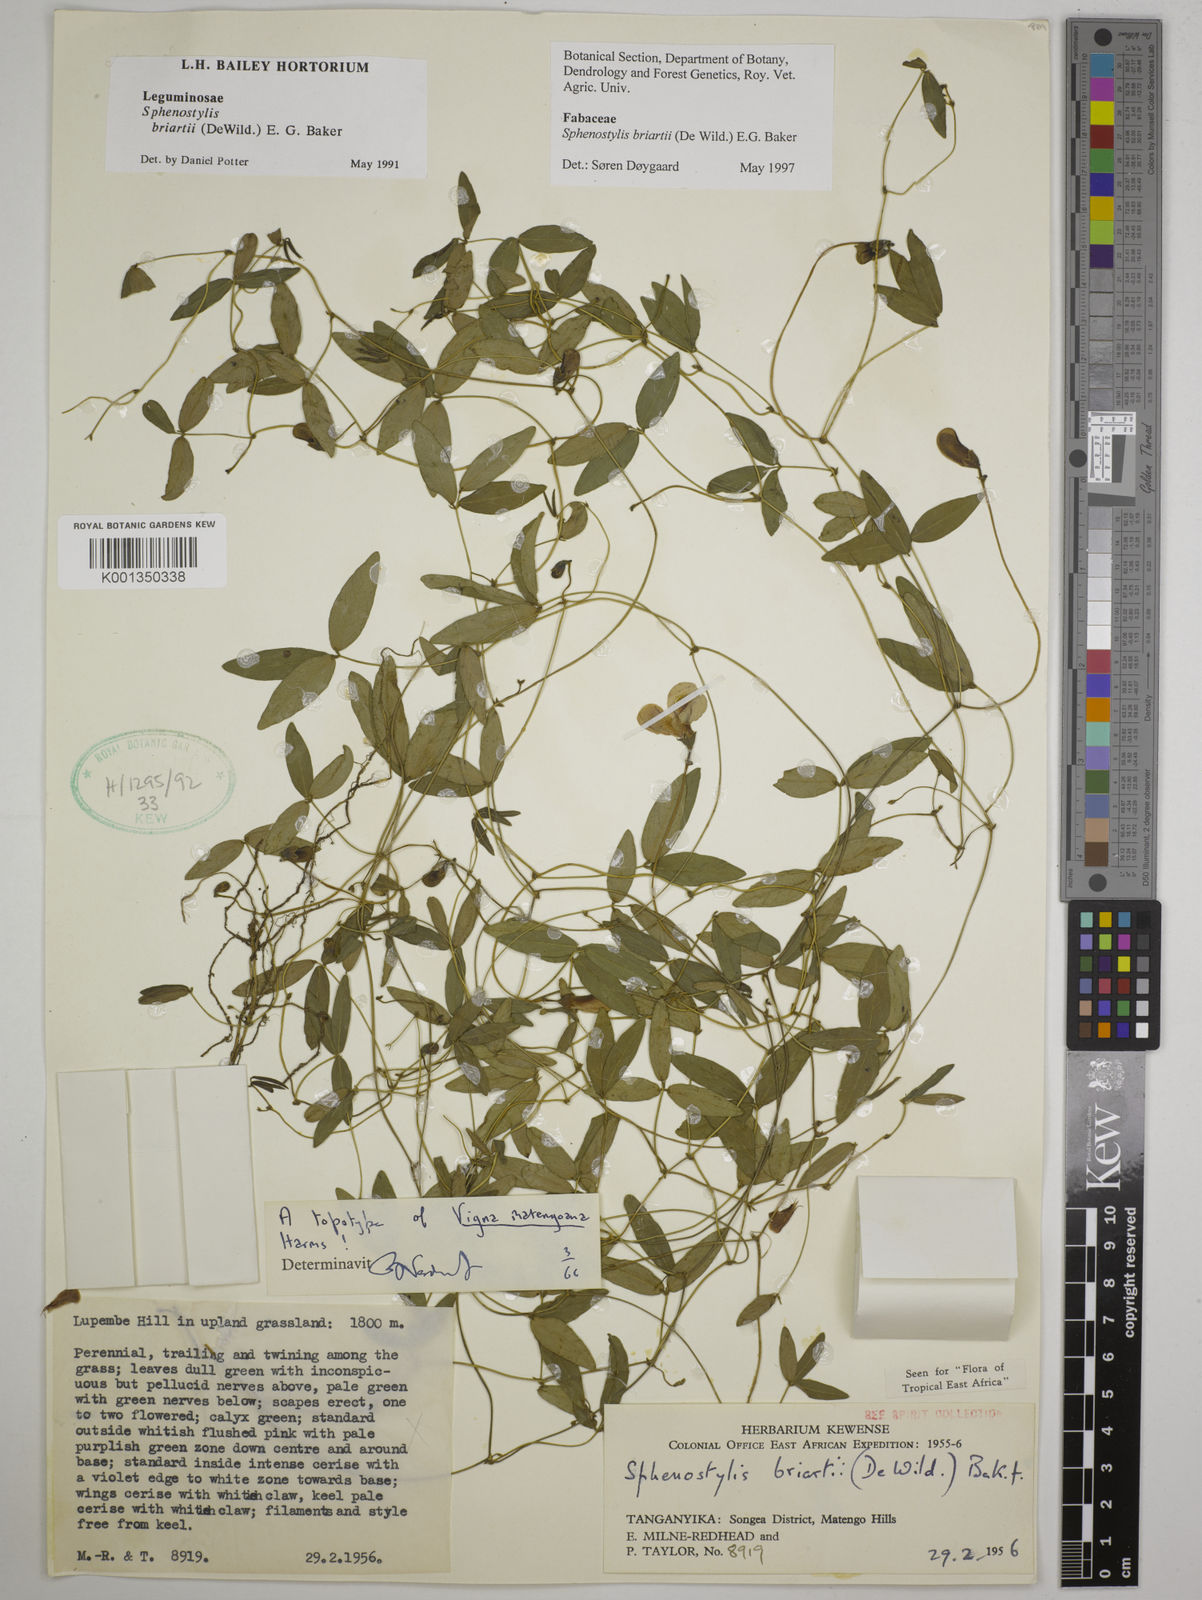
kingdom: Plantae
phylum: Tracheophyta
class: Magnoliopsida
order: Fabales
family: Fabaceae
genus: Sphenostylis
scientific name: Sphenostylis briartii
